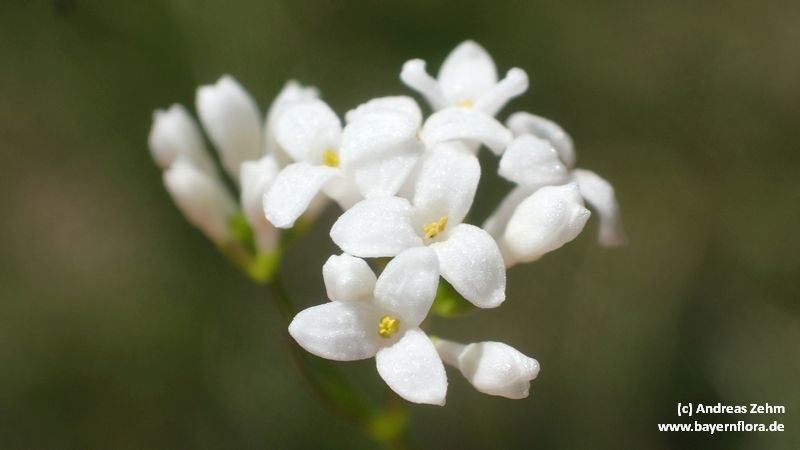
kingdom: Plantae
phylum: Tracheophyta
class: Magnoliopsida
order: Gentianales
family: Rubiaceae
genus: Asperula
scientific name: Asperula tinctoria
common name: Dyer's woodruff
